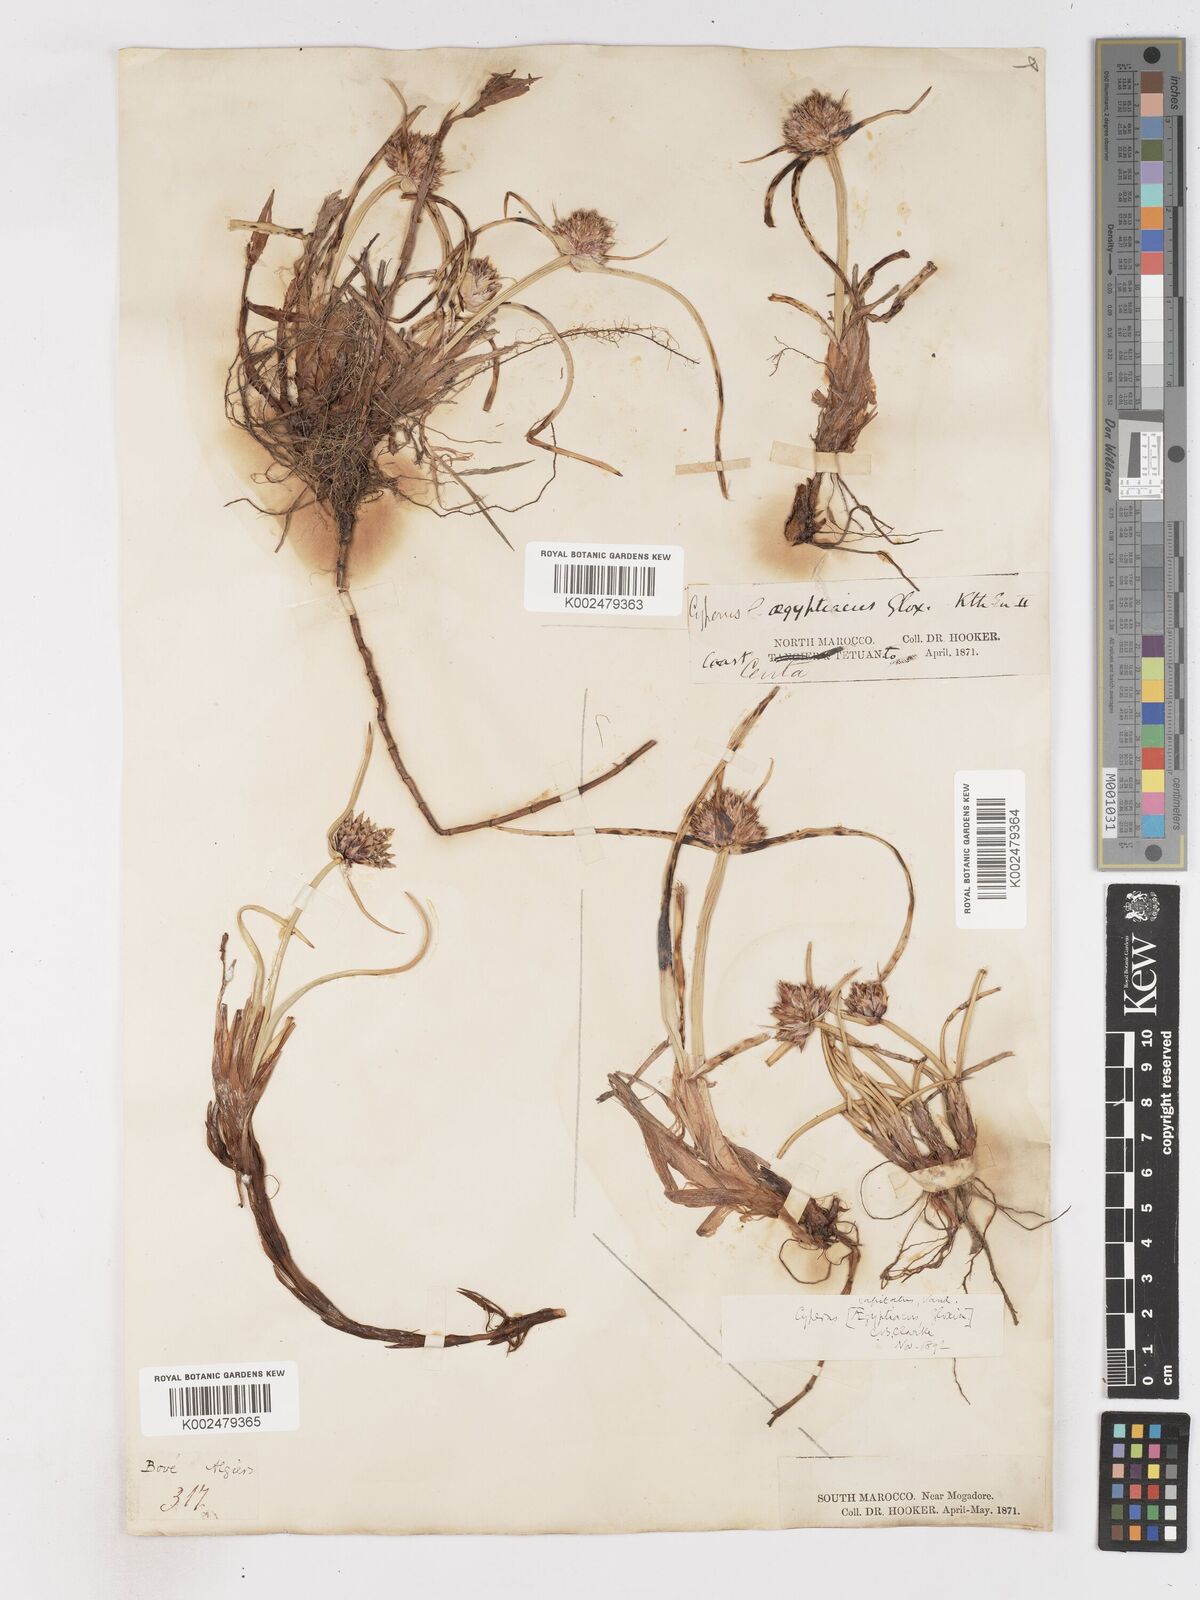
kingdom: Plantae
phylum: Tracheophyta
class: Liliopsida
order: Poales
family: Cyperaceae
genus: Cyperus
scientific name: Cyperus capitatus
